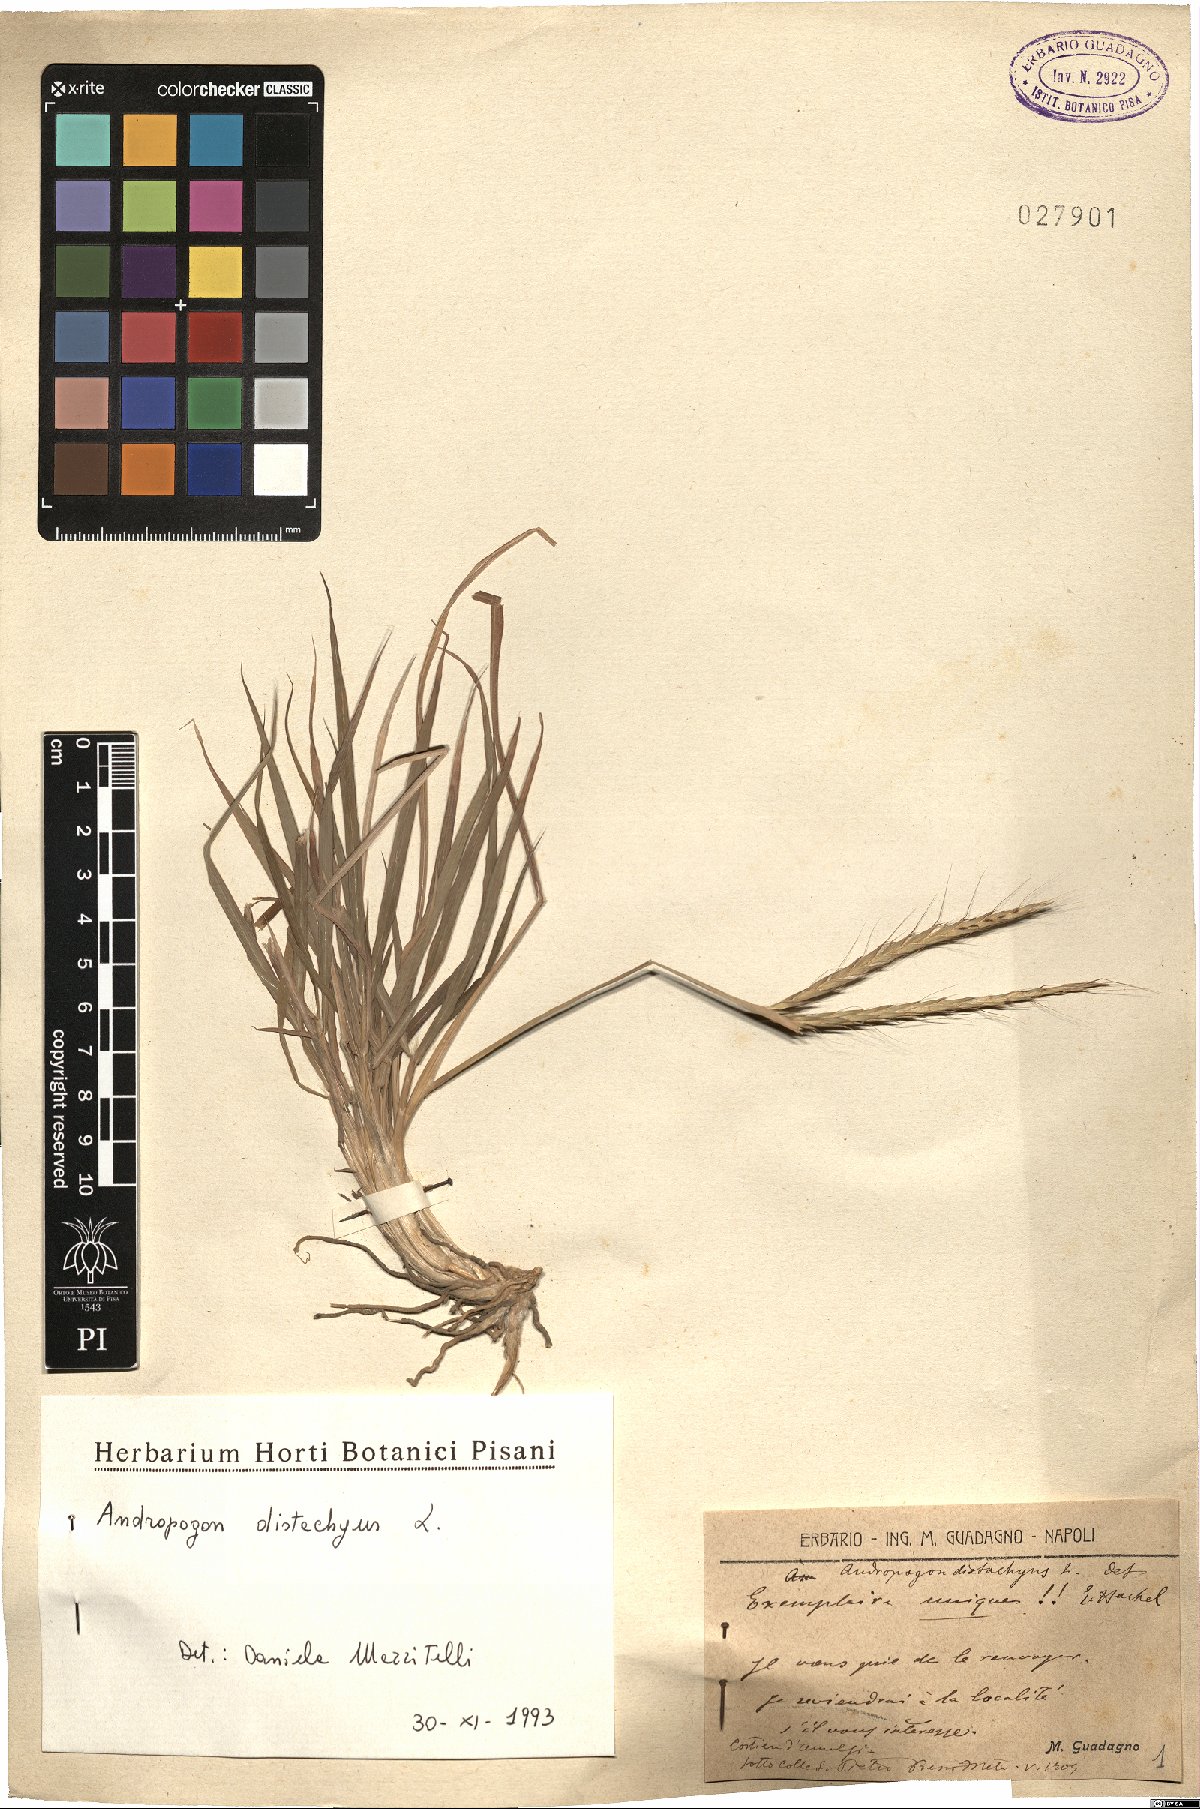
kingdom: Plantae
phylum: Tracheophyta
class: Liliopsida
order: Poales
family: Poaceae
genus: Andropogon
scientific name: Andropogon distachyos
